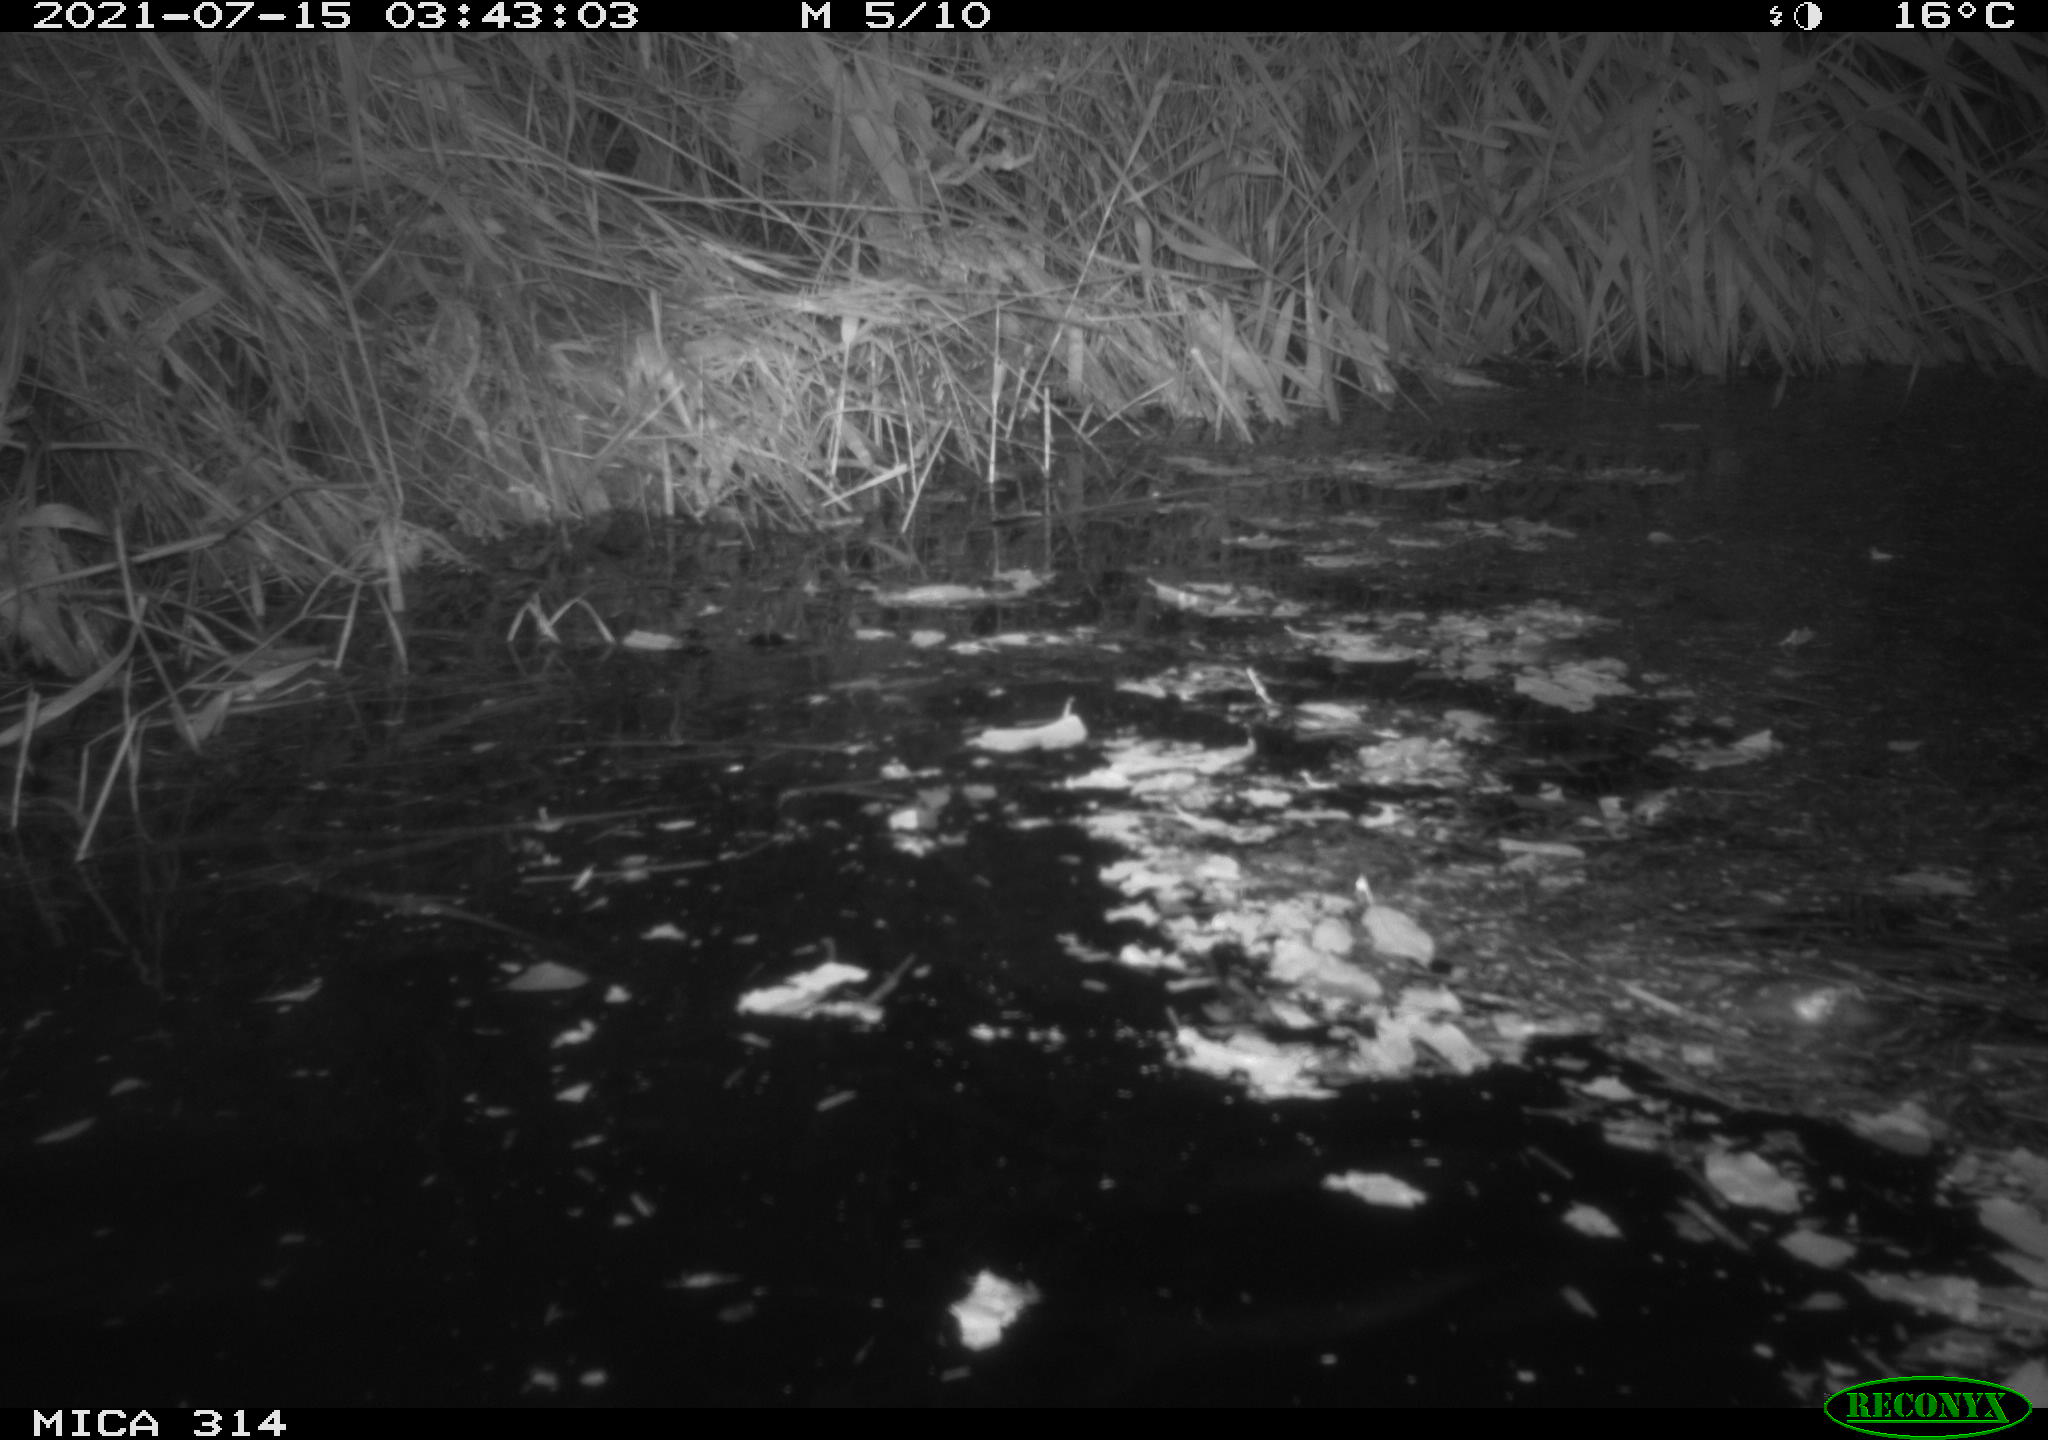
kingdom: Animalia
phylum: Chordata
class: Mammalia
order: Rodentia
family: Muridae
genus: Rattus
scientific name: Rattus norvegicus
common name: Brown rat
